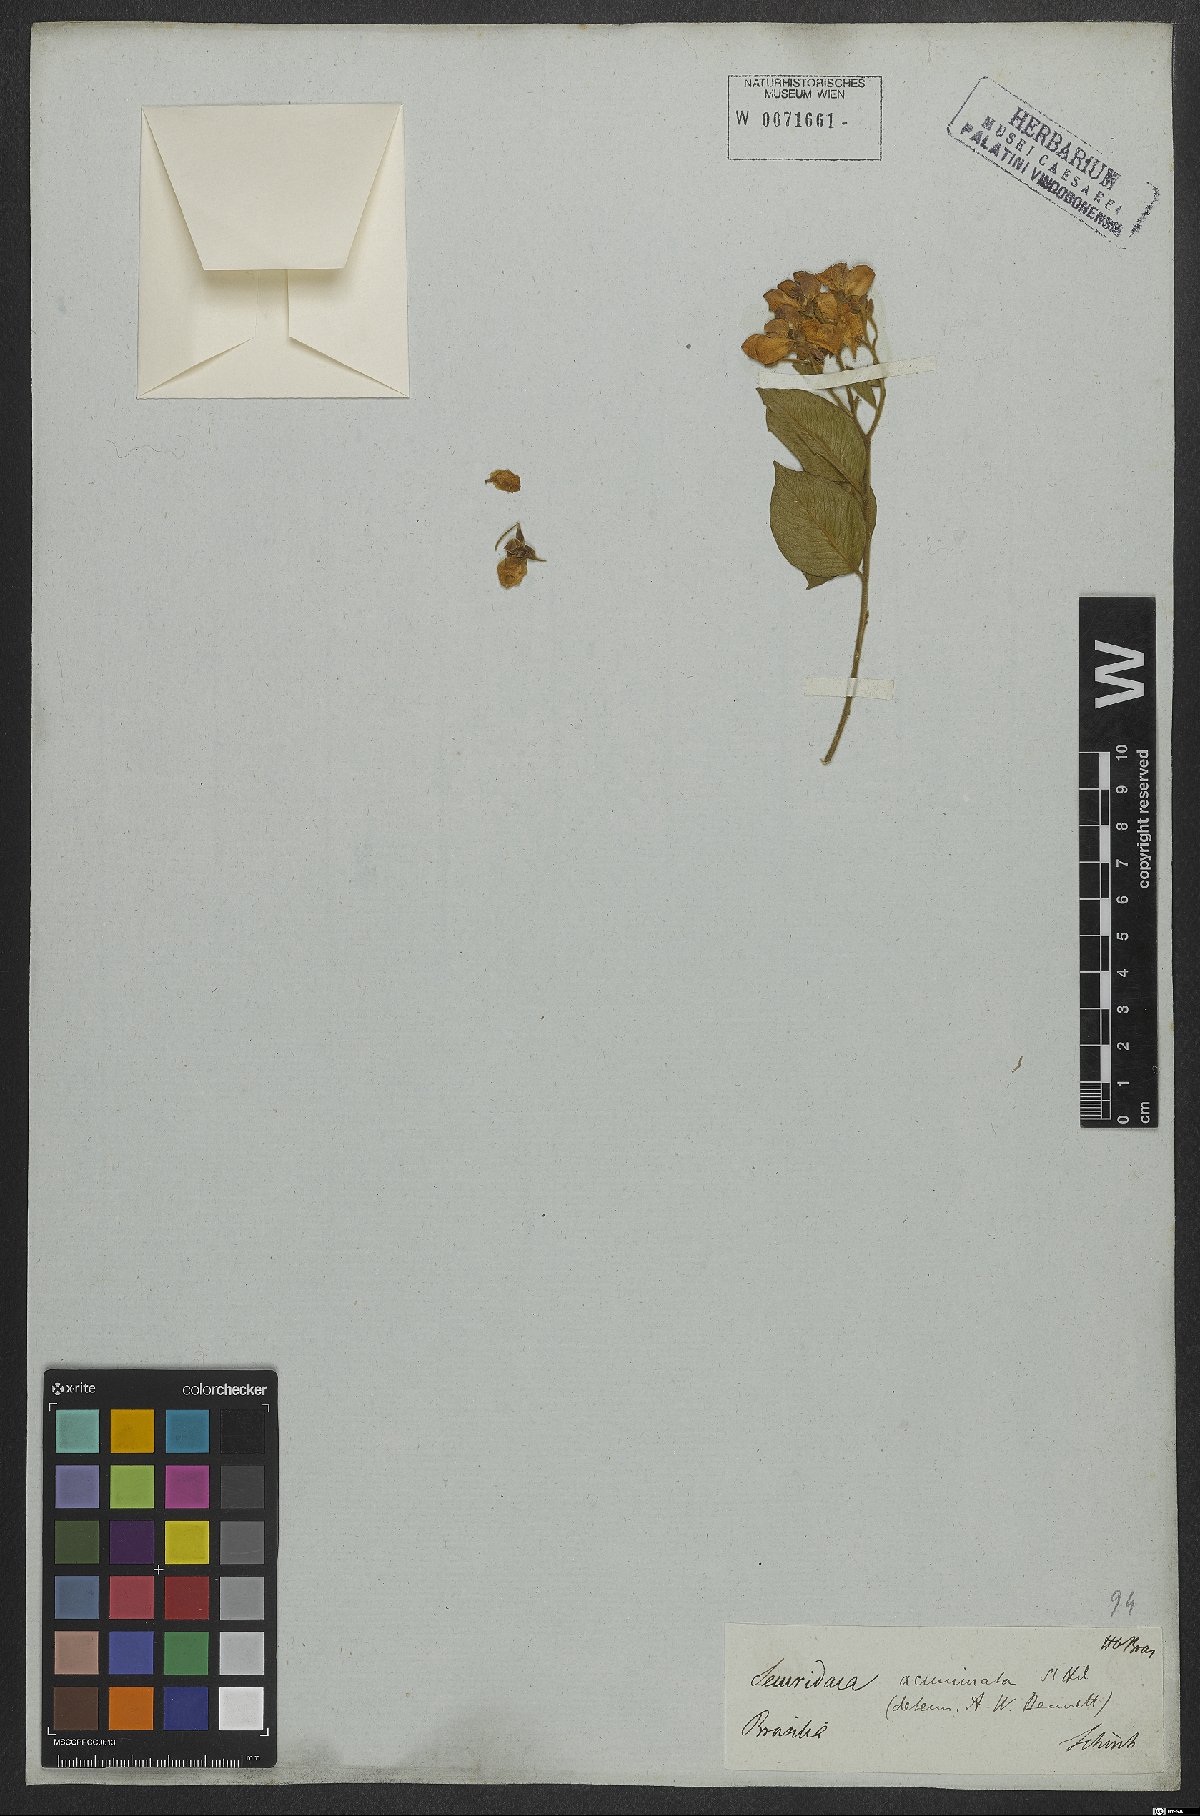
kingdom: Plantae
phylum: Tracheophyta
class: Magnoliopsida
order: Fabales
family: Polygalaceae
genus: Securidaca
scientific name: Securidaca acuminata
